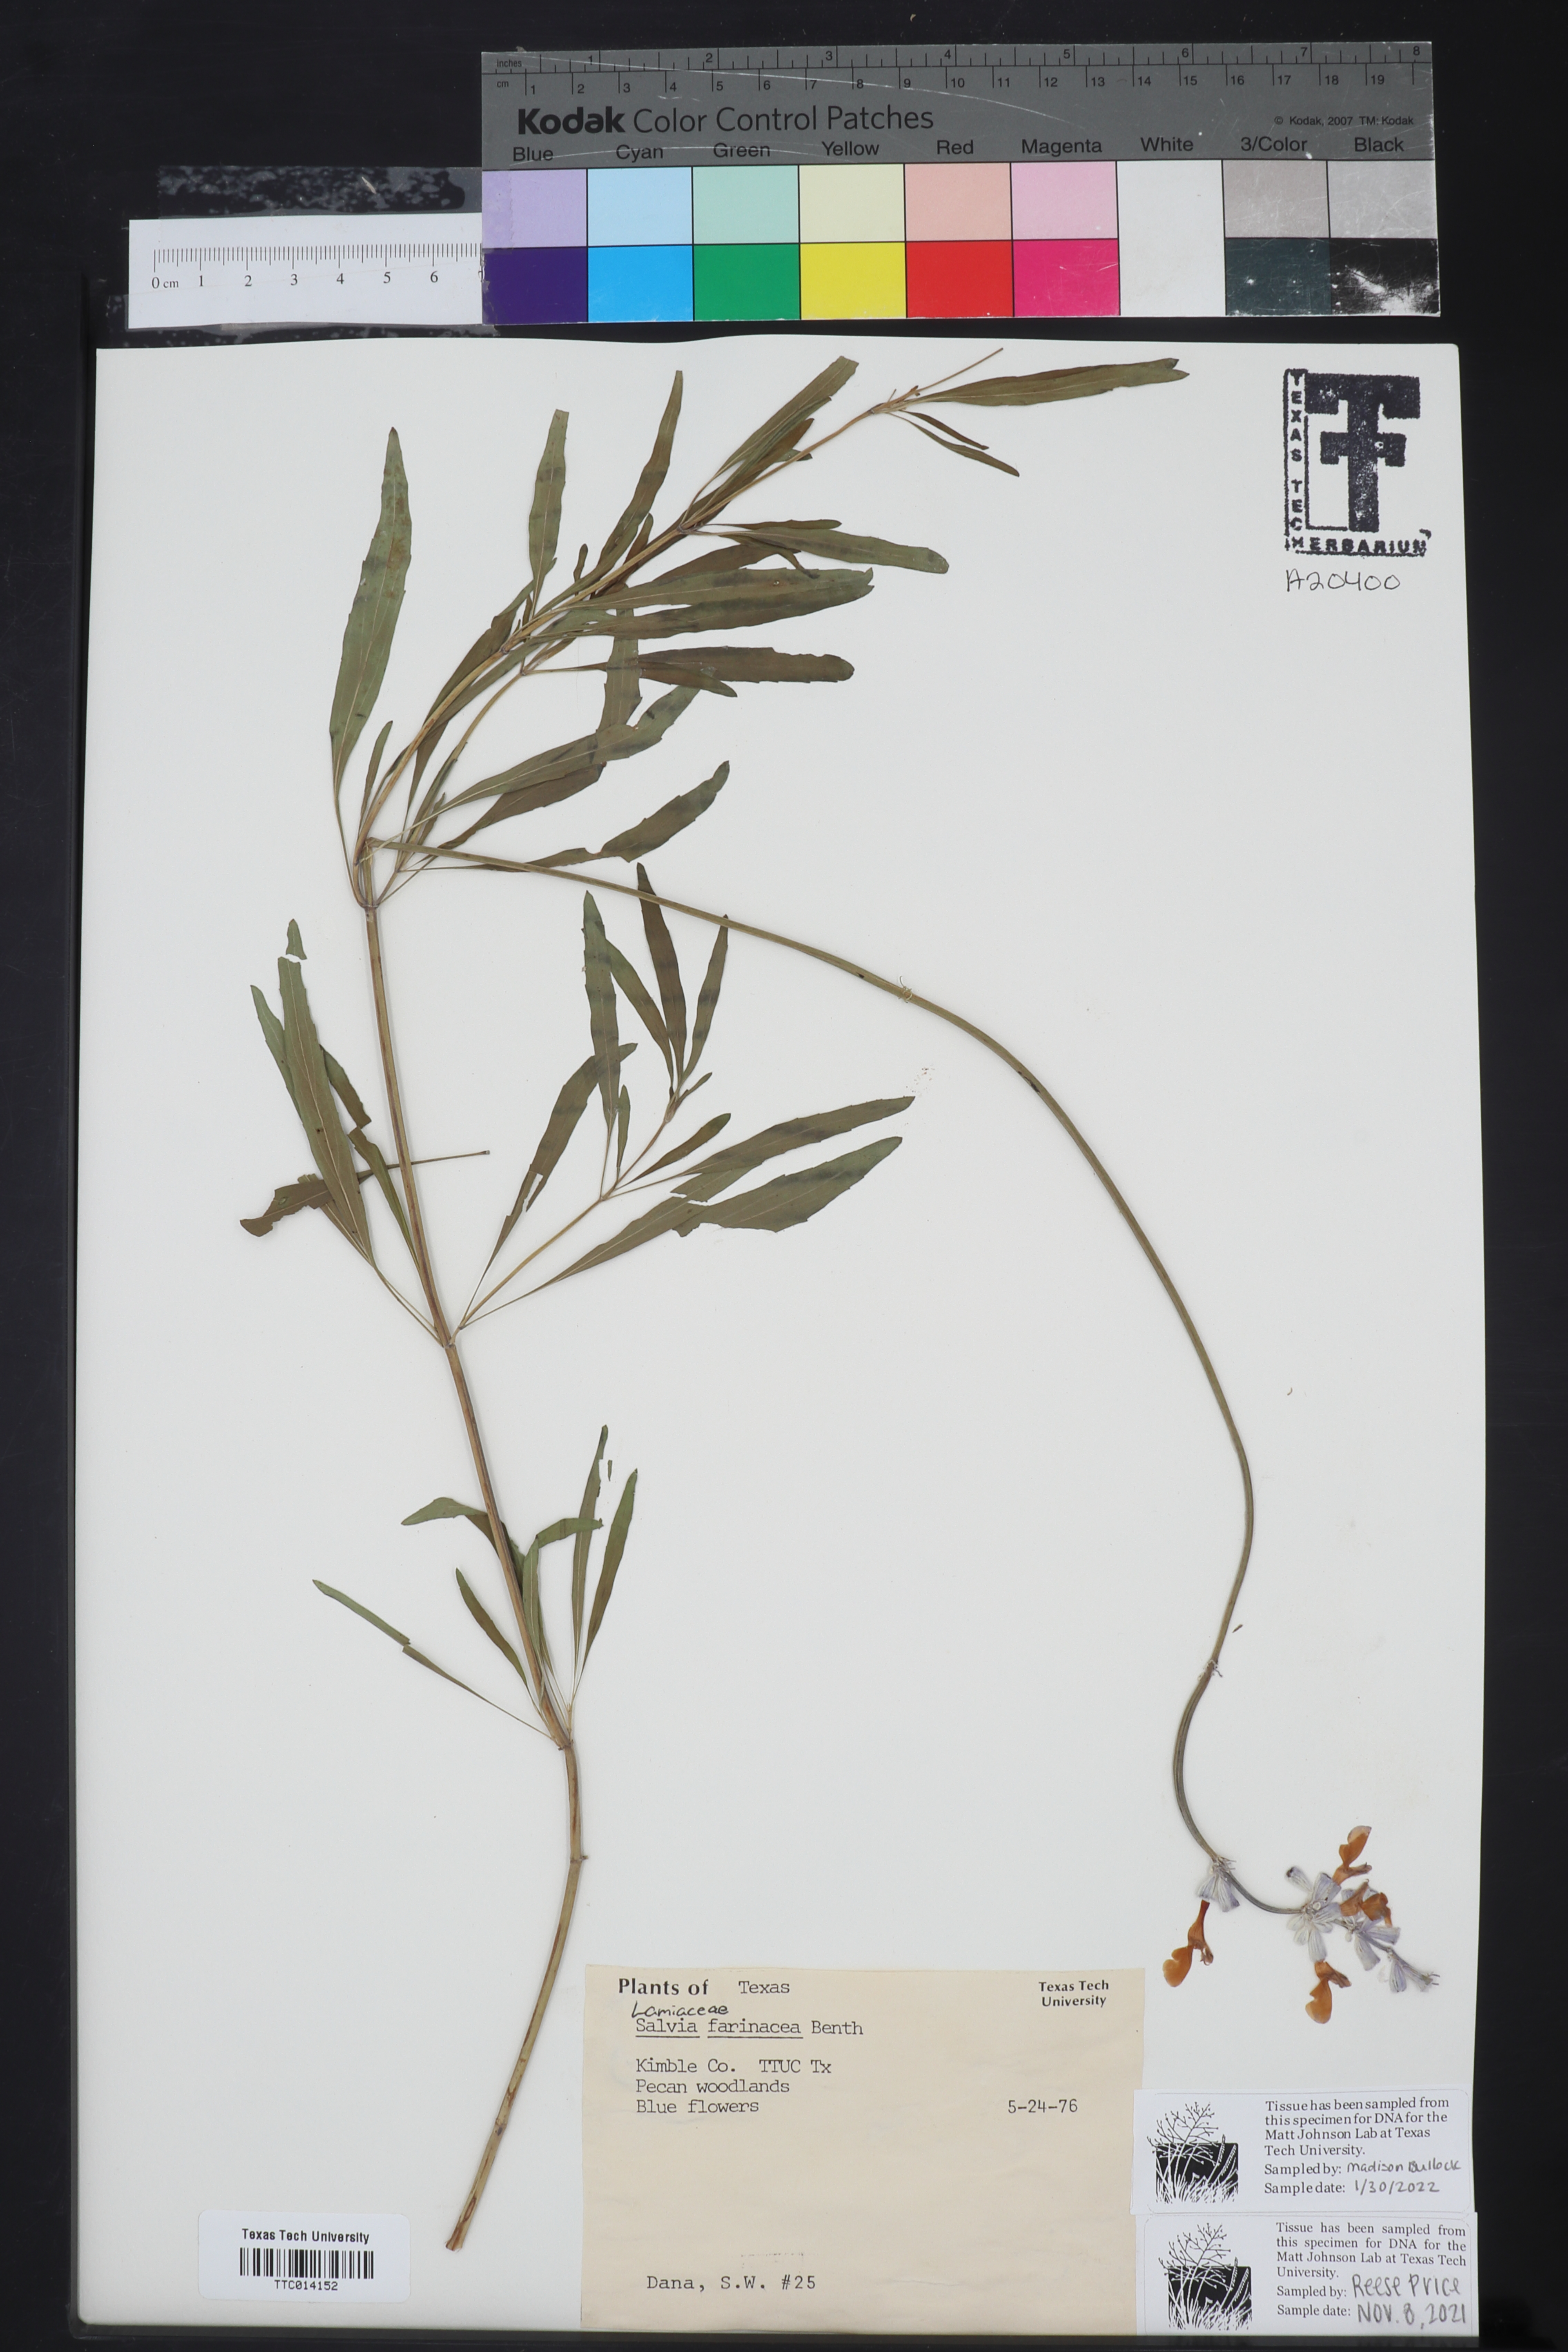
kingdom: Plantae
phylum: Tracheophyta
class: Magnoliopsida
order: Lamiales
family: Lamiaceae
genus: Salvia
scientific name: Salvia farinacea
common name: Mealy sage
